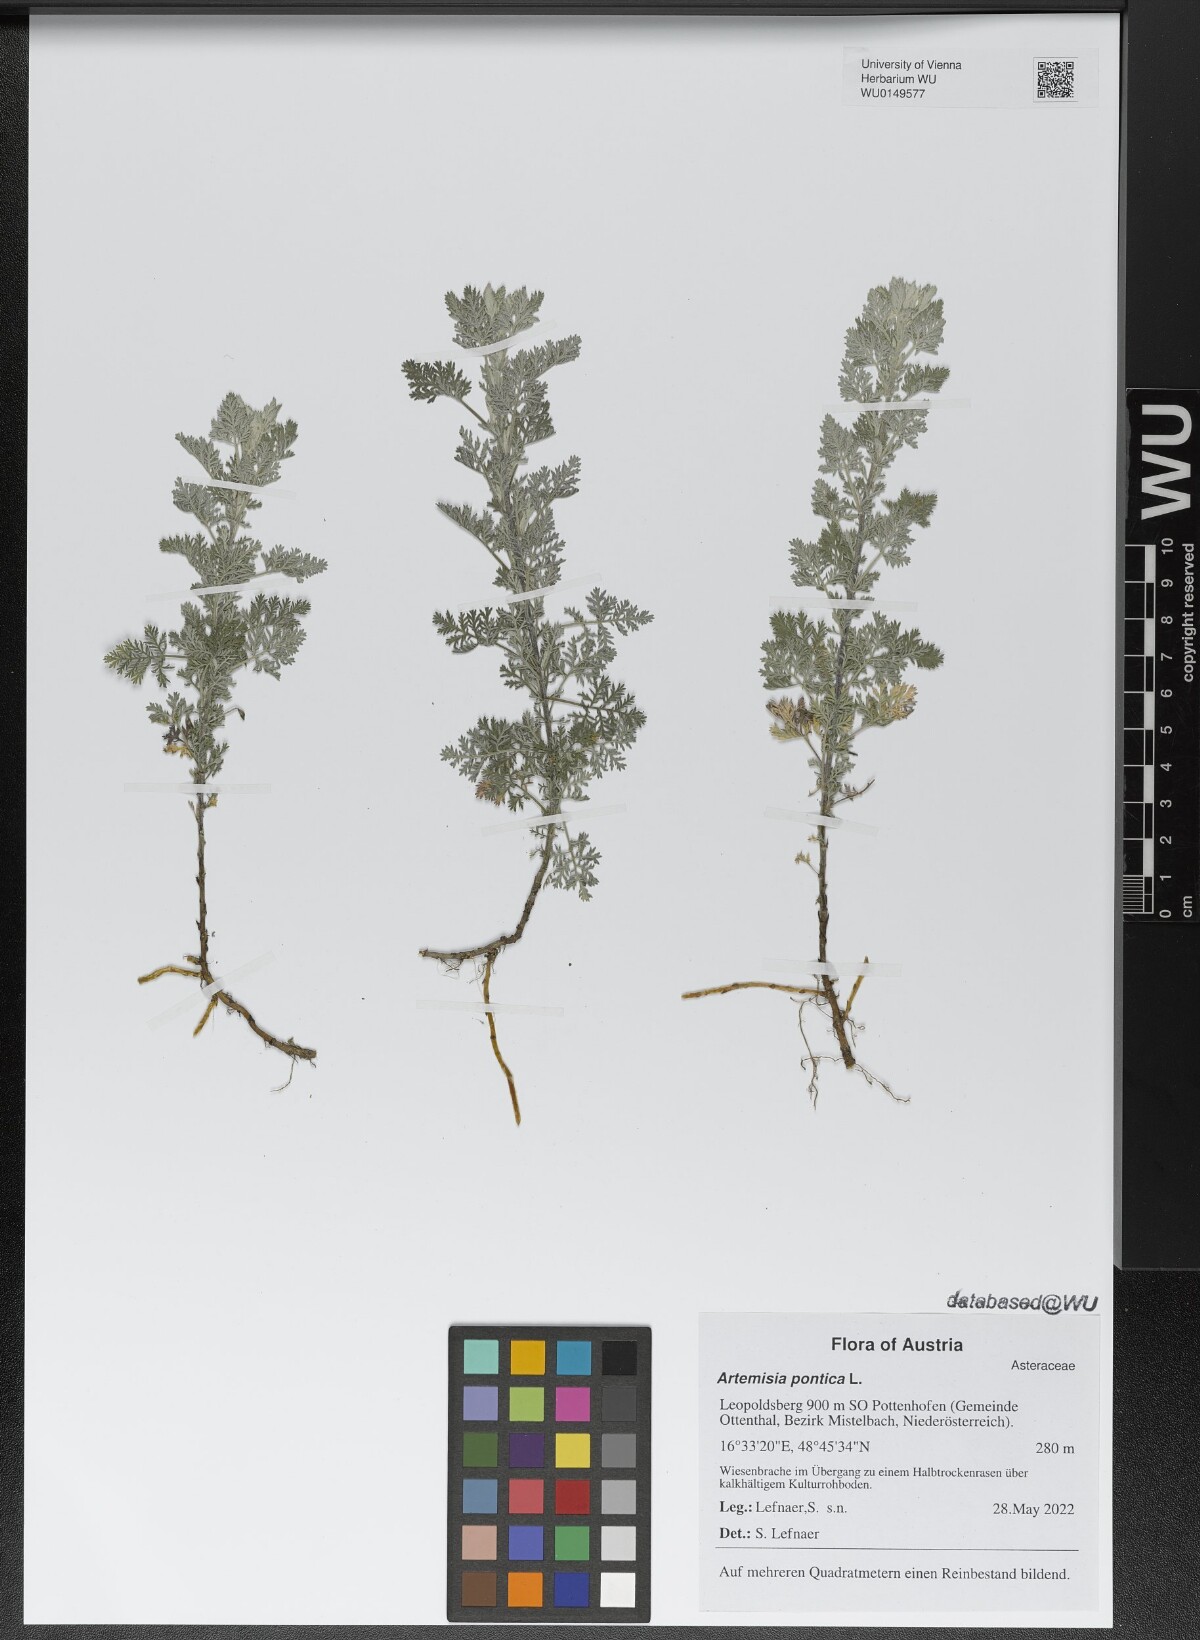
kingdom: Plantae
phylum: Tracheophyta
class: Magnoliopsida
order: Asterales
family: Asteraceae
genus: Artemisia
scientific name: Artemisia pontica
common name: Roman wormwood
